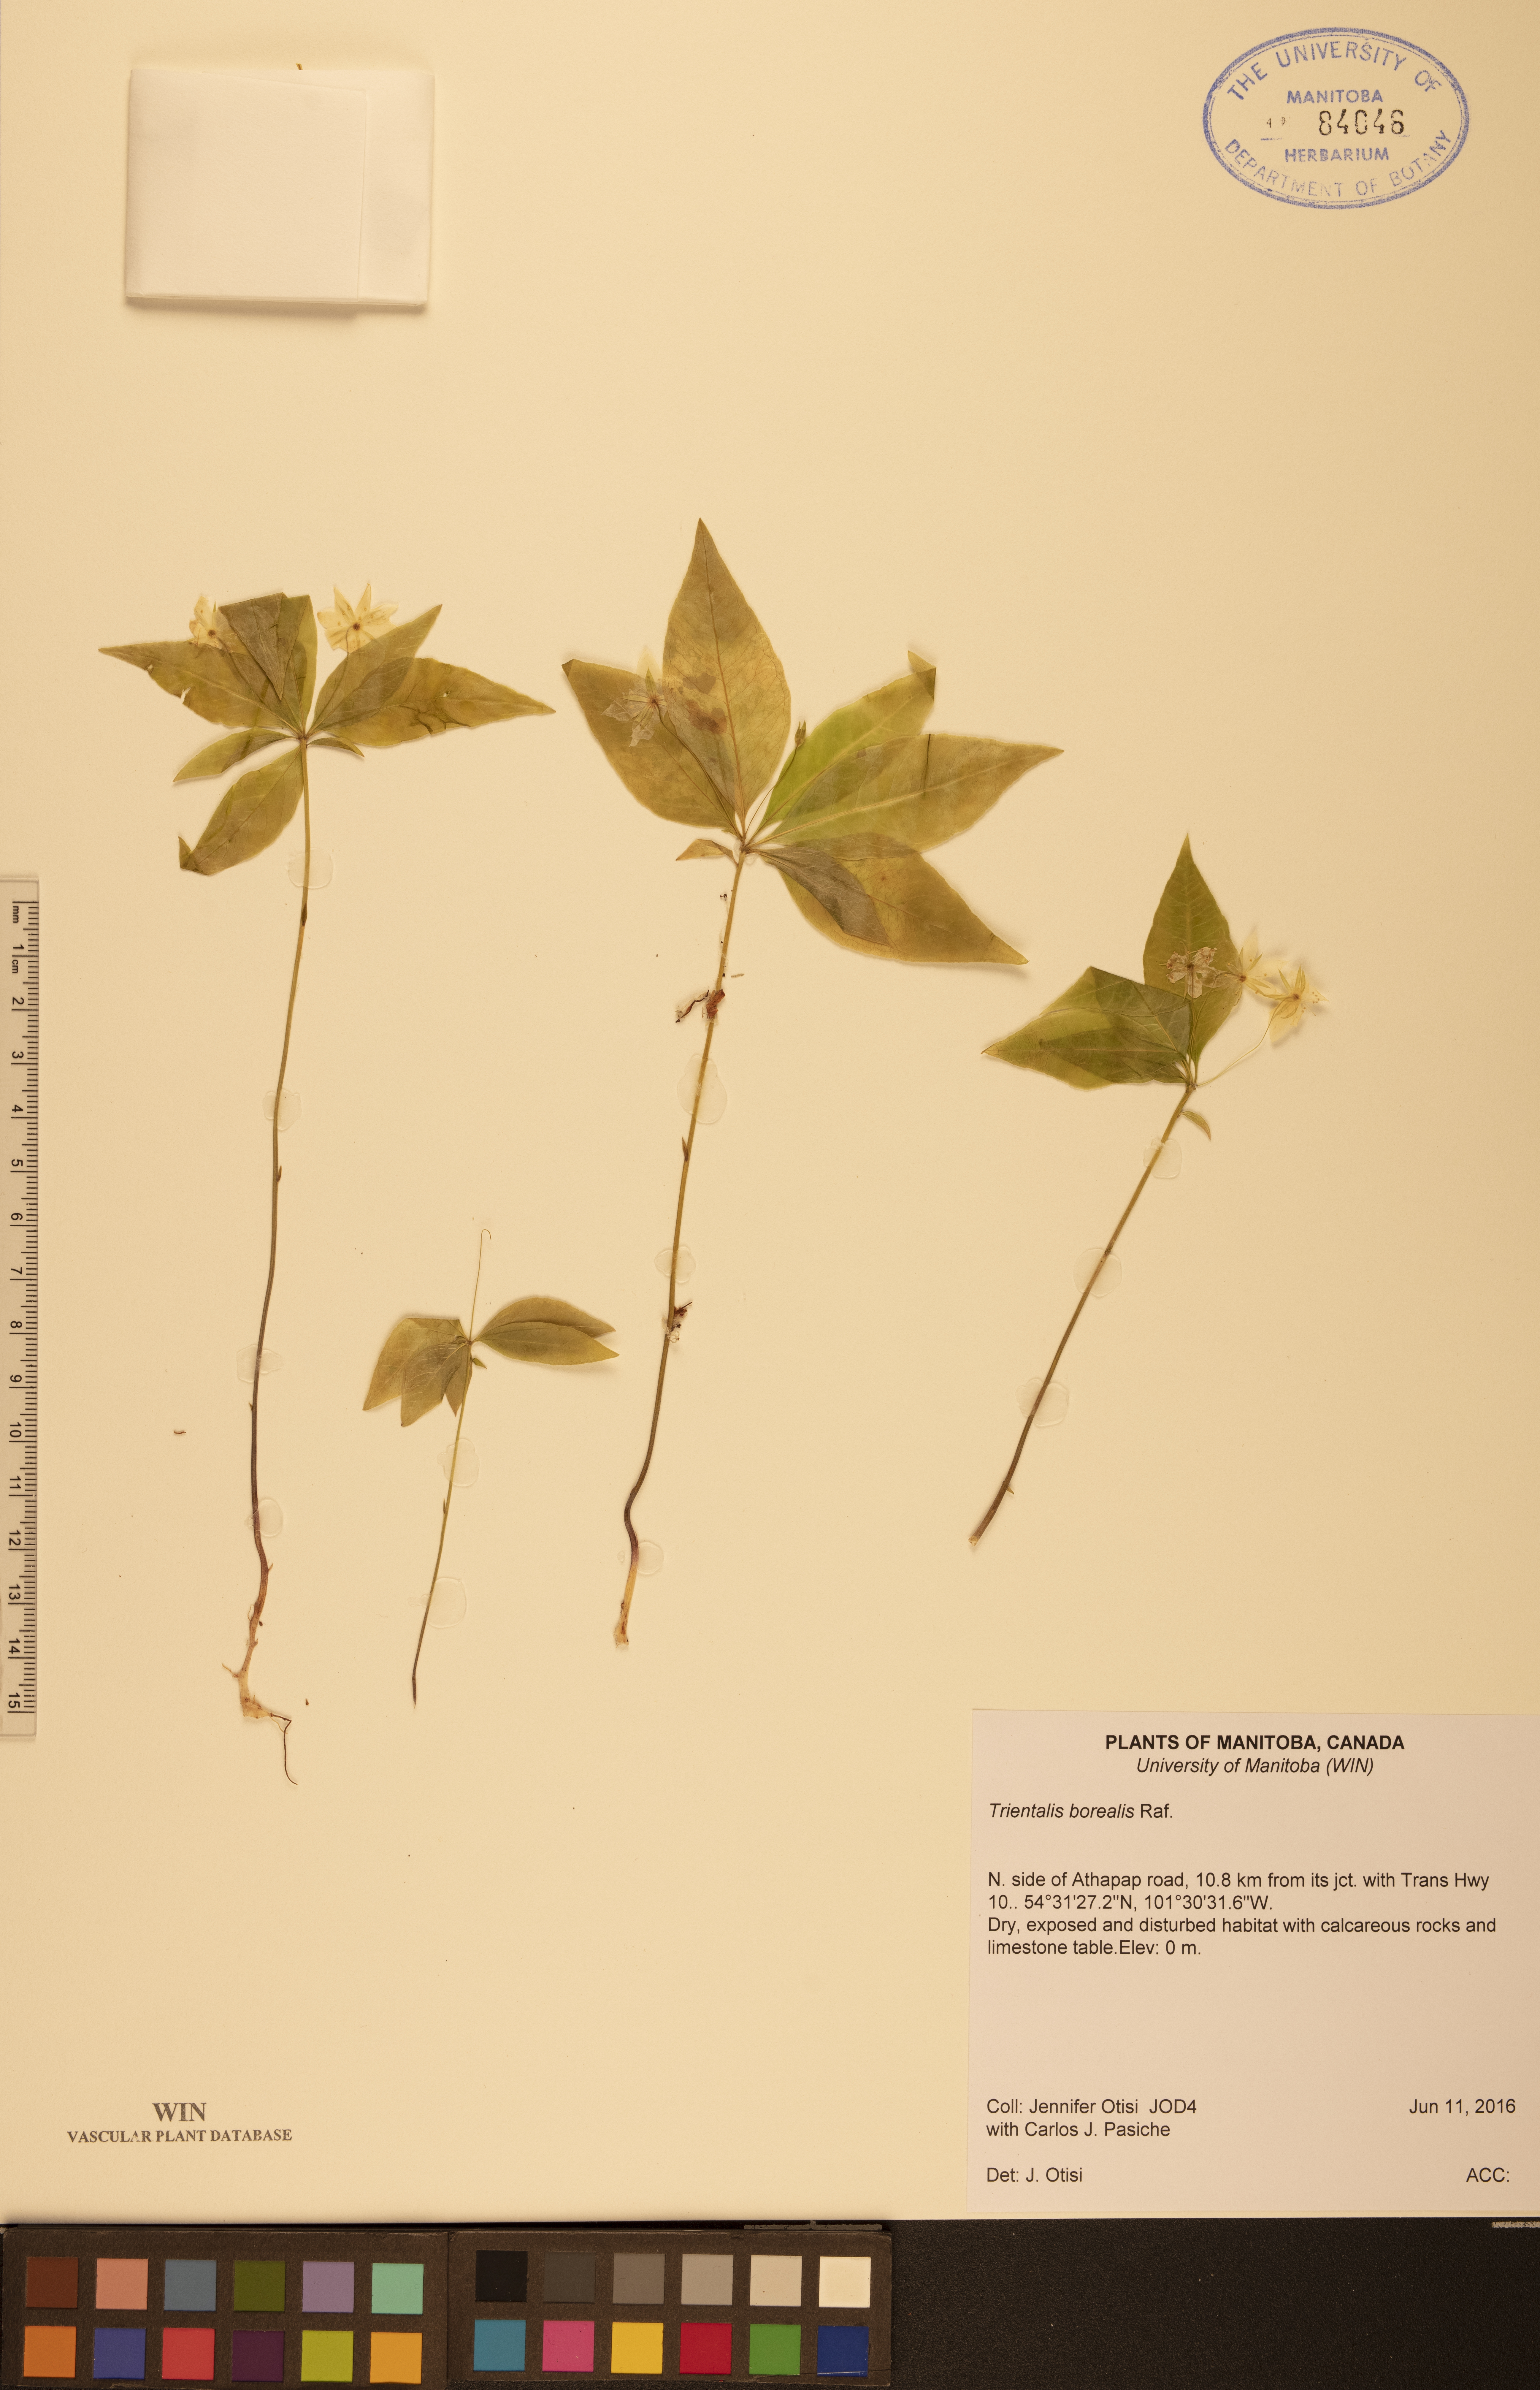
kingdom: Plantae
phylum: Tracheophyta
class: Magnoliopsida
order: Ericales
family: Primulaceae
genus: Lysimachia
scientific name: Lysimachia borealis
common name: American starflower
